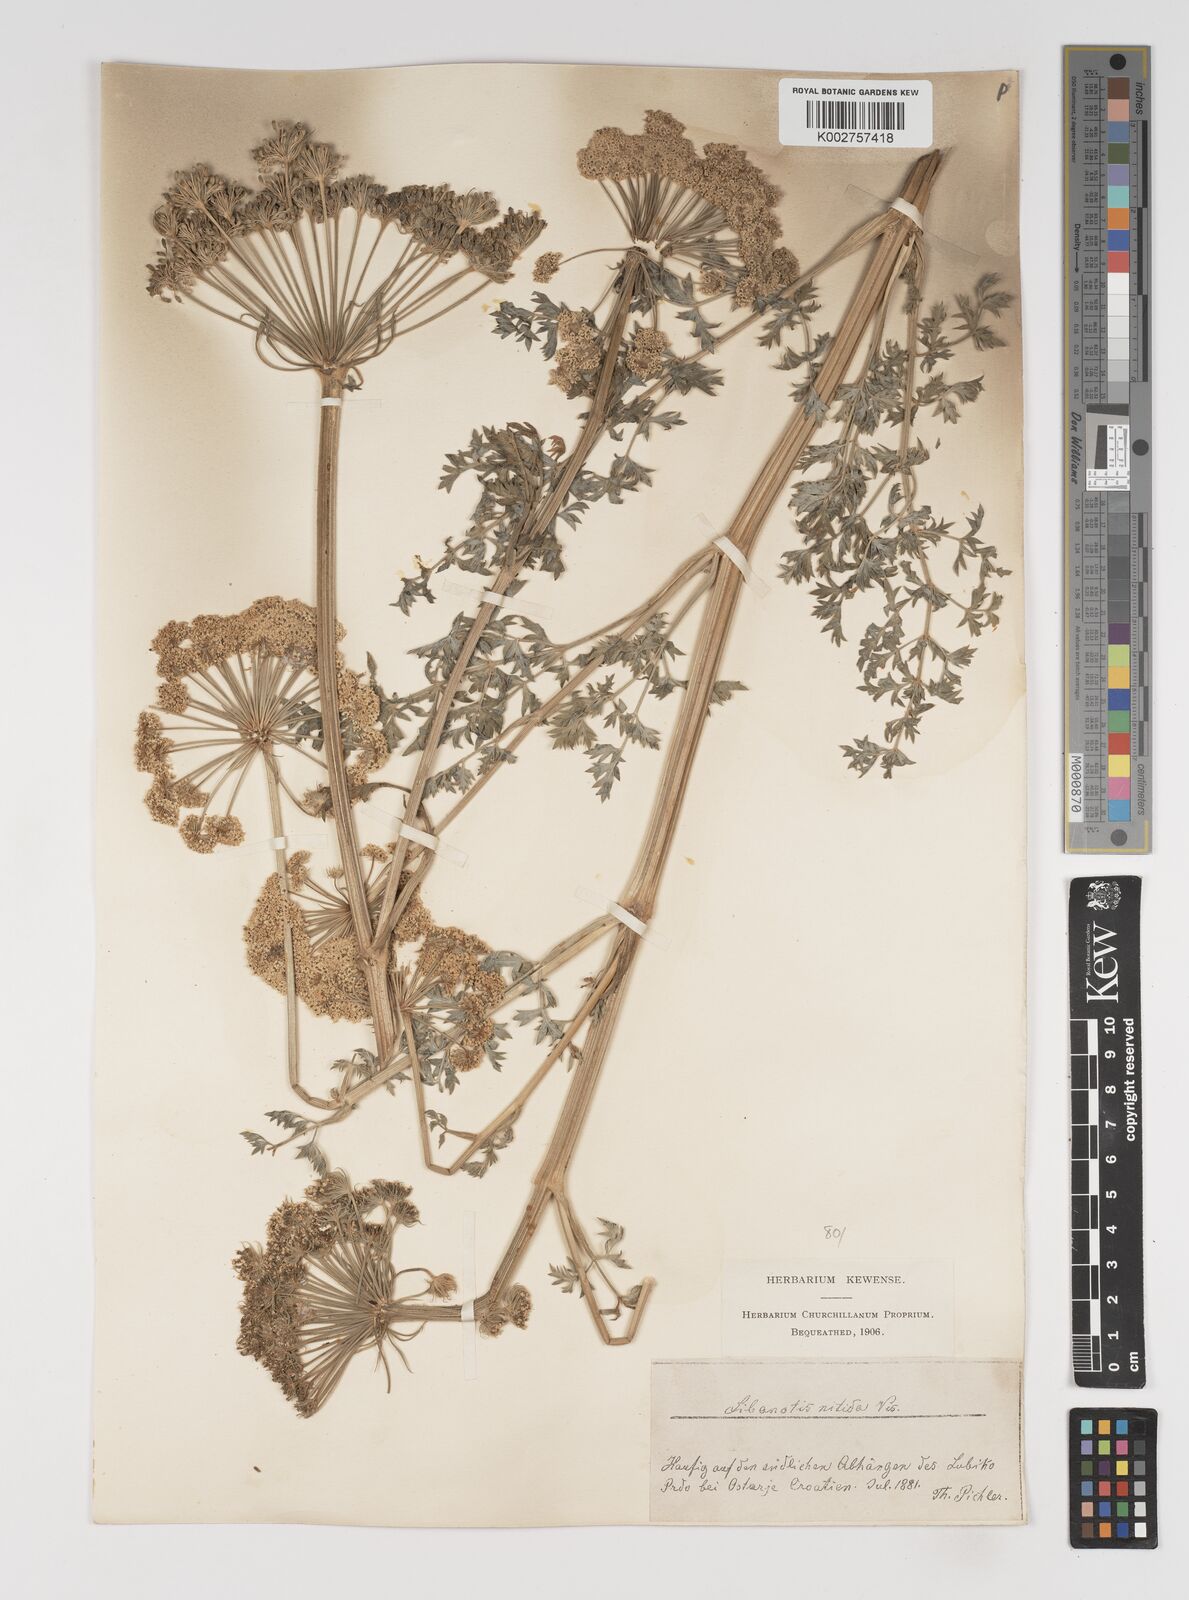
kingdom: Plantae
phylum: Tracheophyta
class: Magnoliopsida
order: Apiales
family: Apiaceae
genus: Stenocoelium
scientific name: Stenocoelium athamantoides
